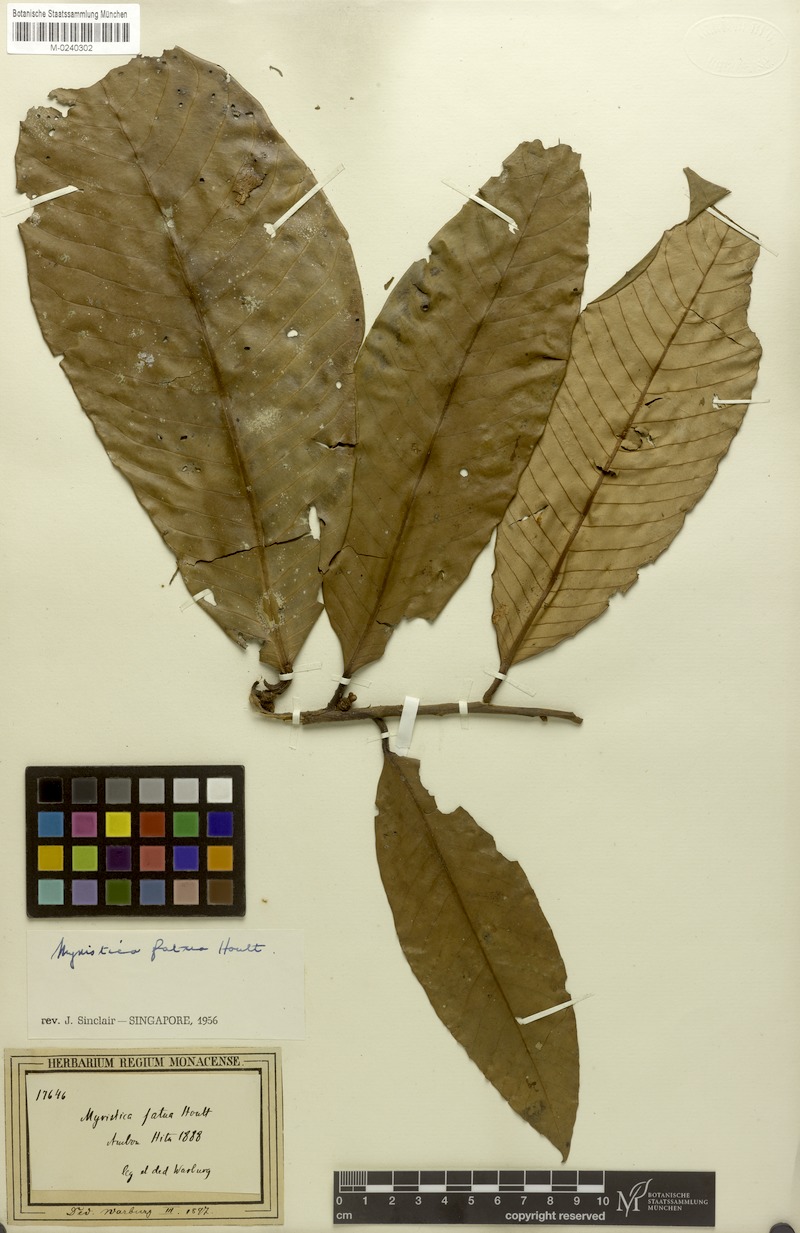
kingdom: Plantae
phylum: Tracheophyta
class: Magnoliopsida
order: Magnoliales
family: Myristicaceae
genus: Virola
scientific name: Virola surinamensis
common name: Baboonwood
